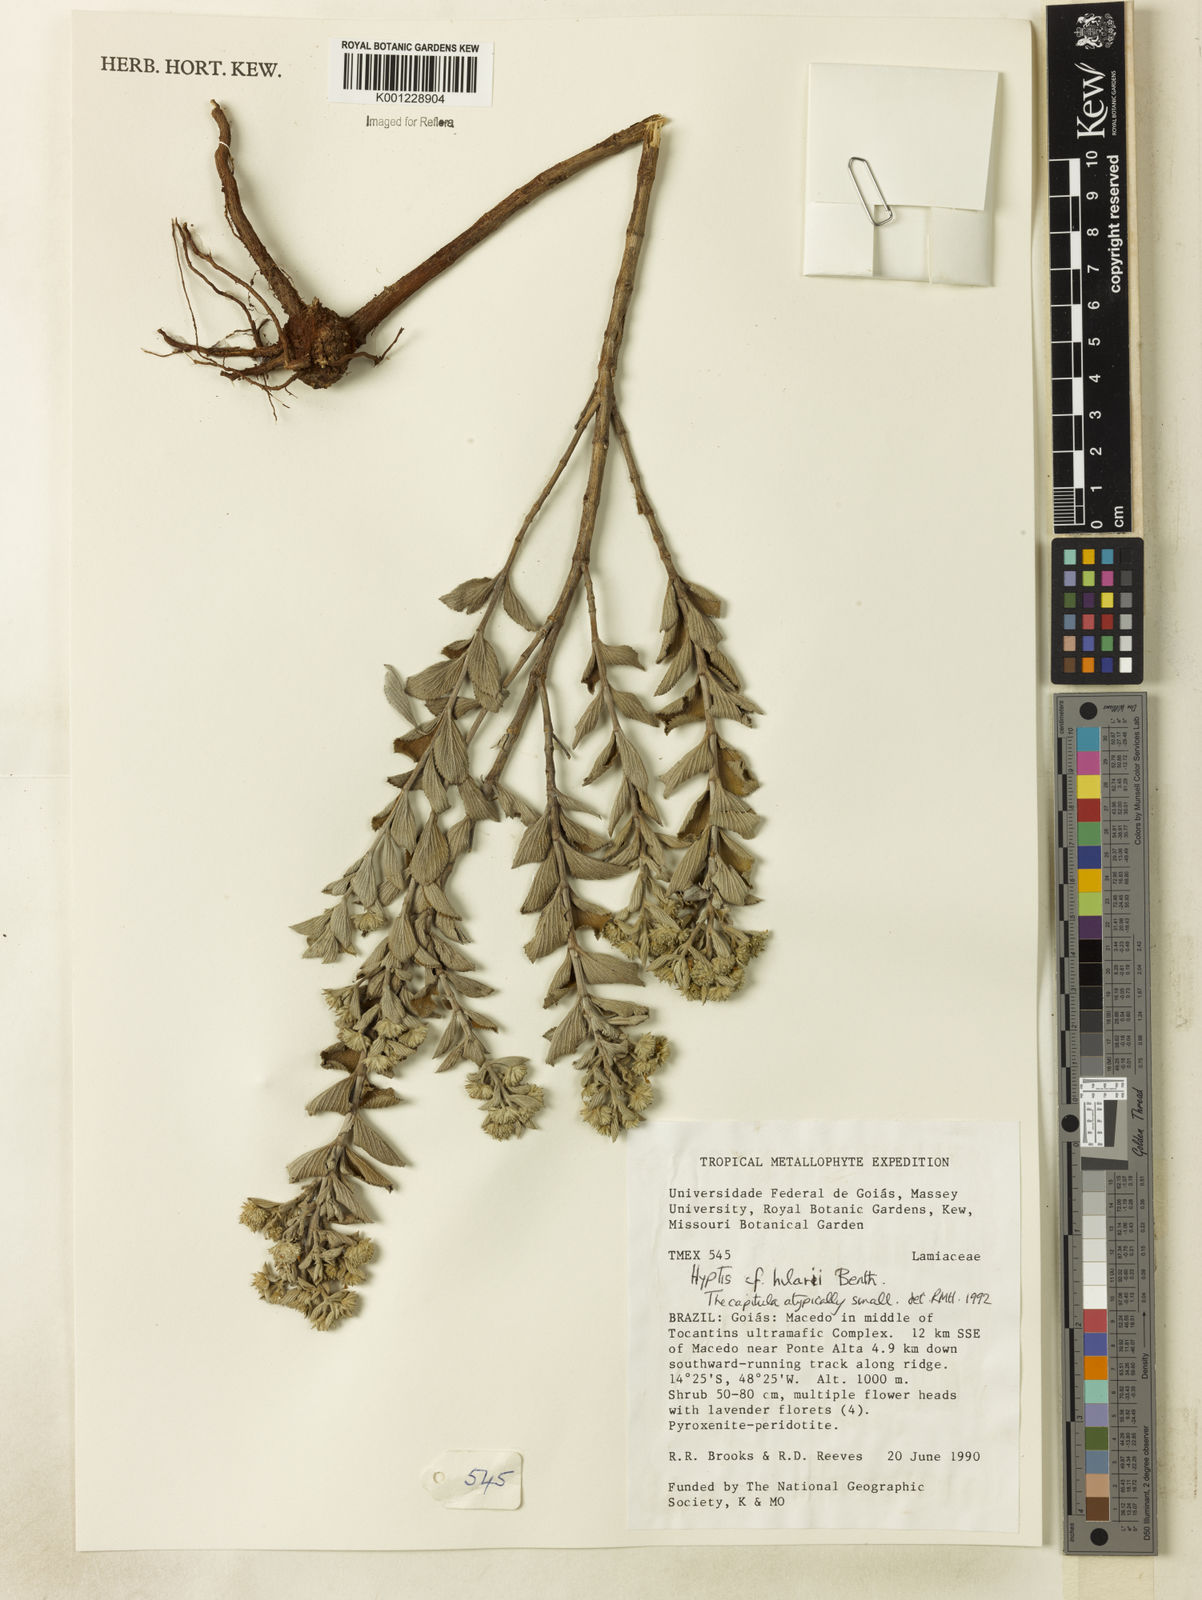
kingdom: Plantae
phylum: Tracheophyta
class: Magnoliopsida
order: Lamiales
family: Lamiaceae
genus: Hyptis
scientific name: Hyptis hilarii
